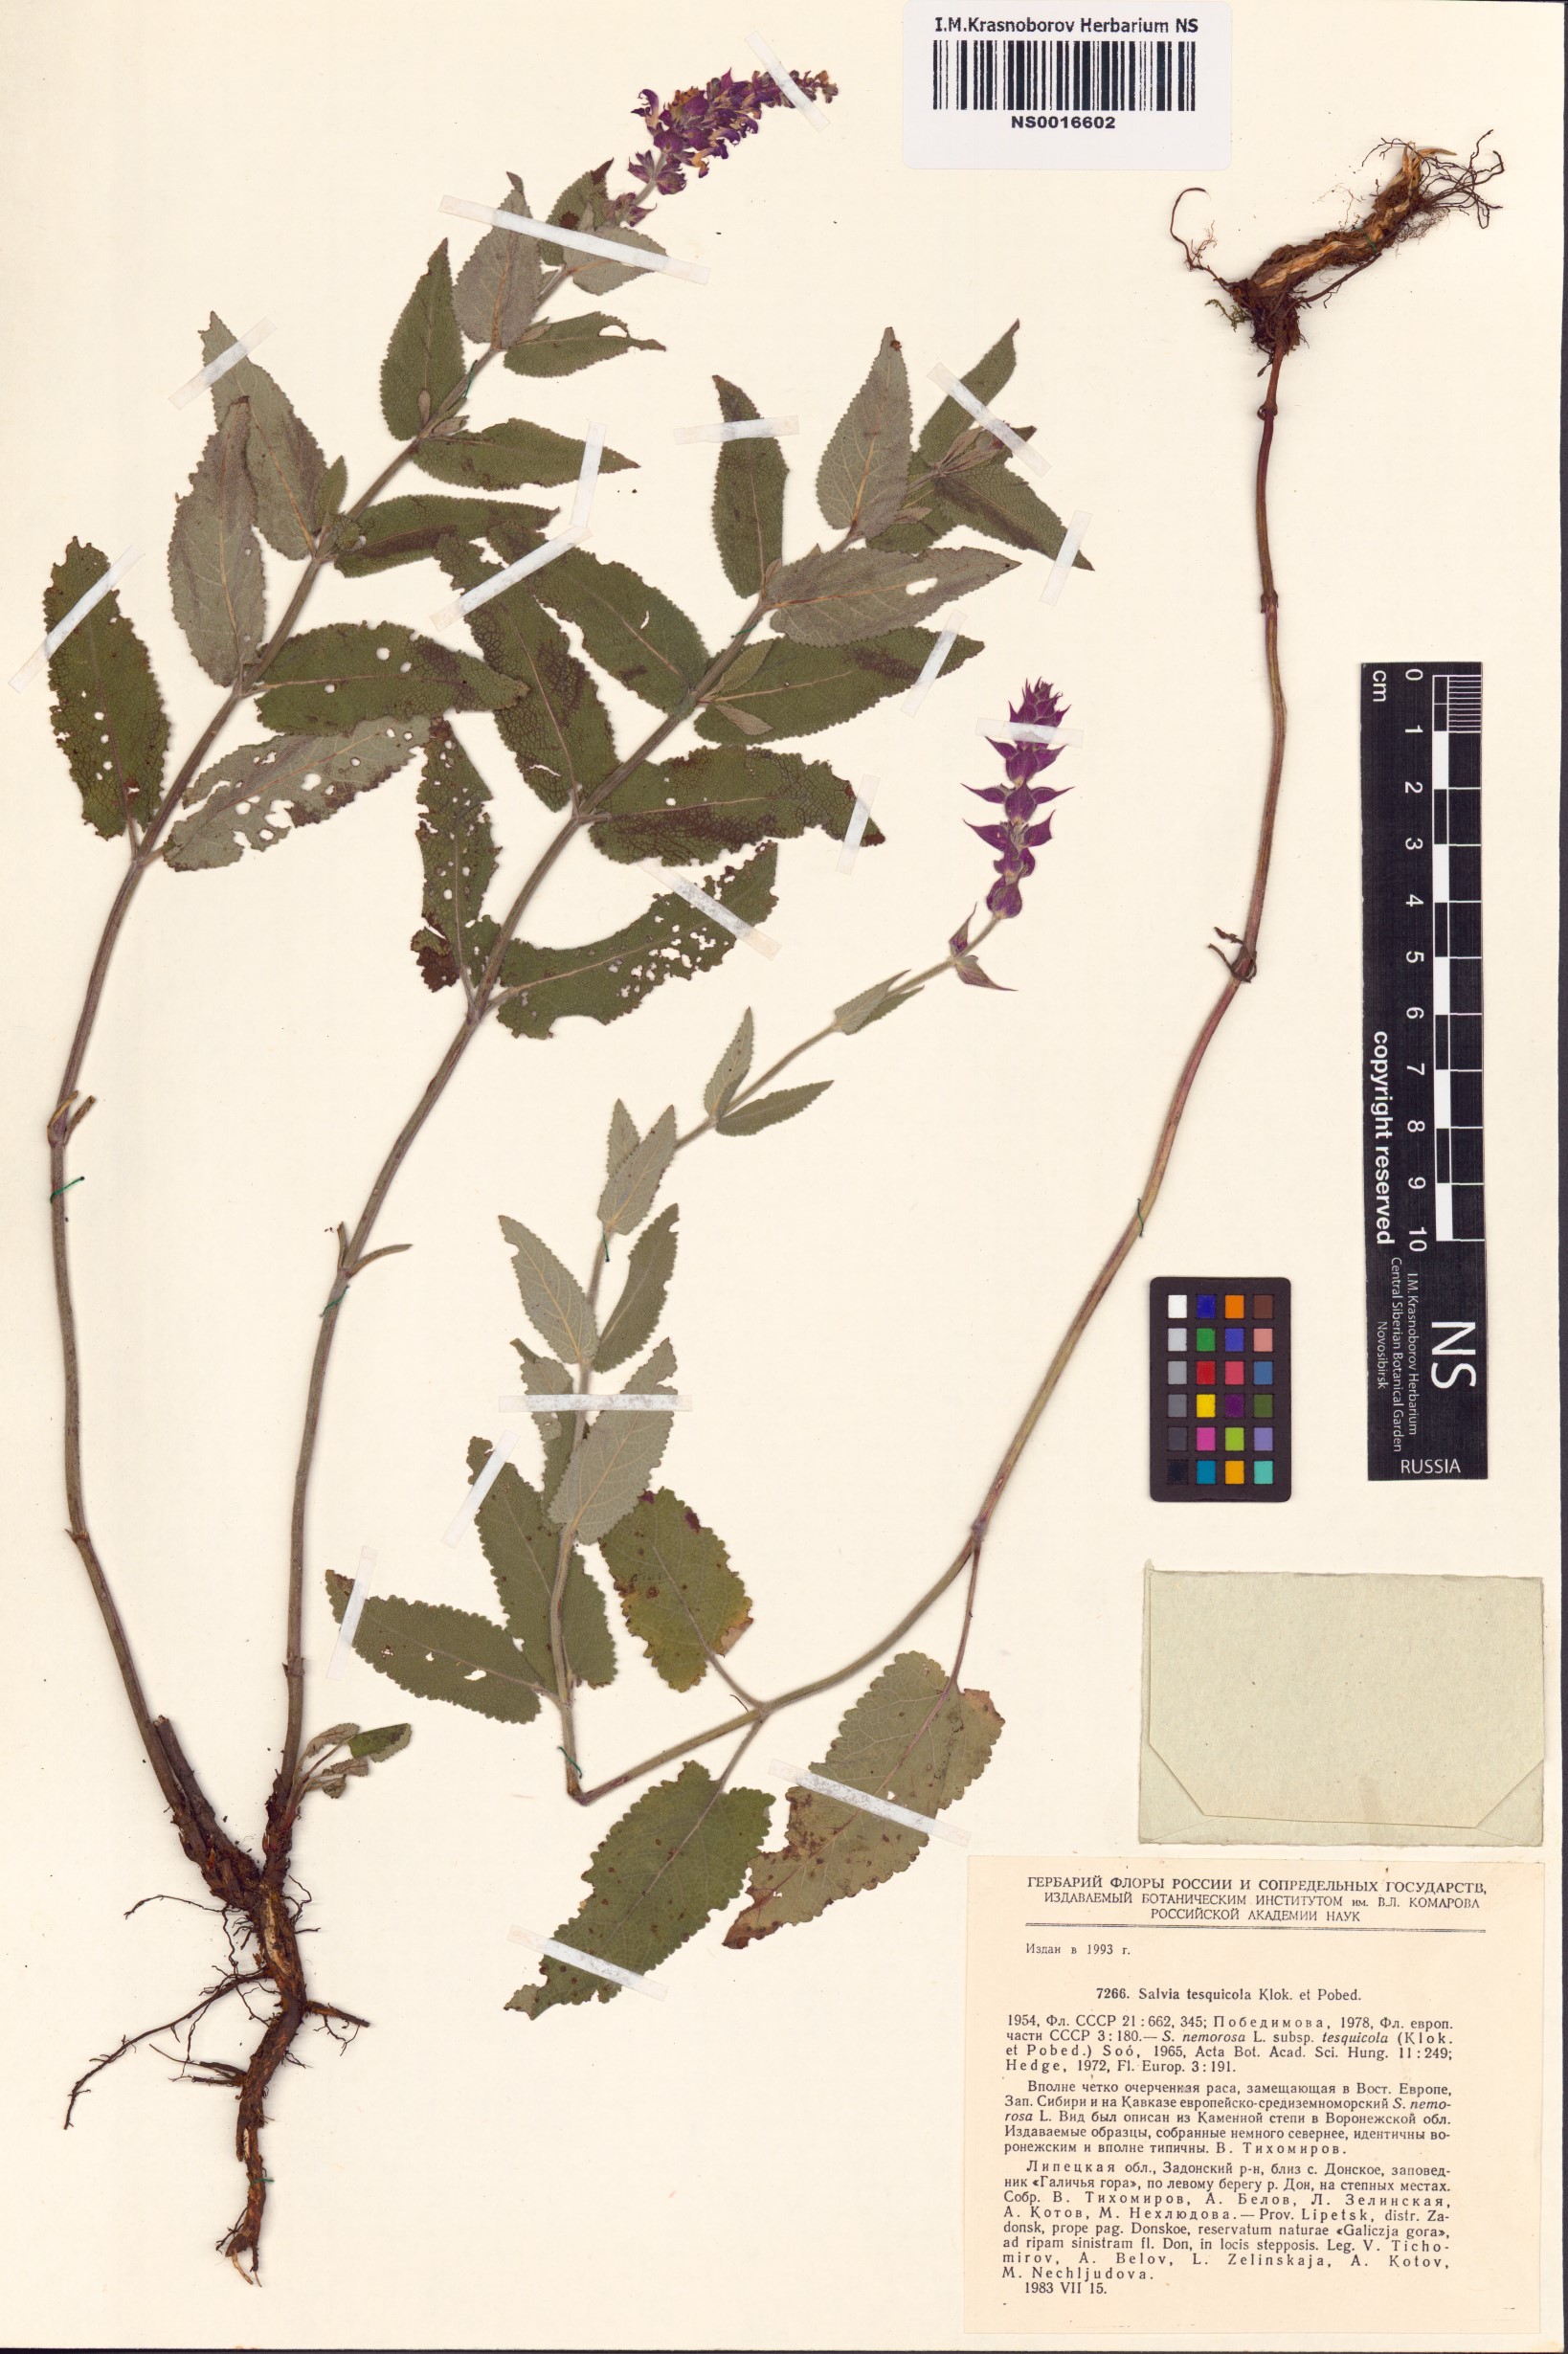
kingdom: Plantae
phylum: Tracheophyta
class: Magnoliopsida
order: Lamiales
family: Lamiaceae
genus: Salvia
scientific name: Salvia nemorosa
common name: Balkan clary
